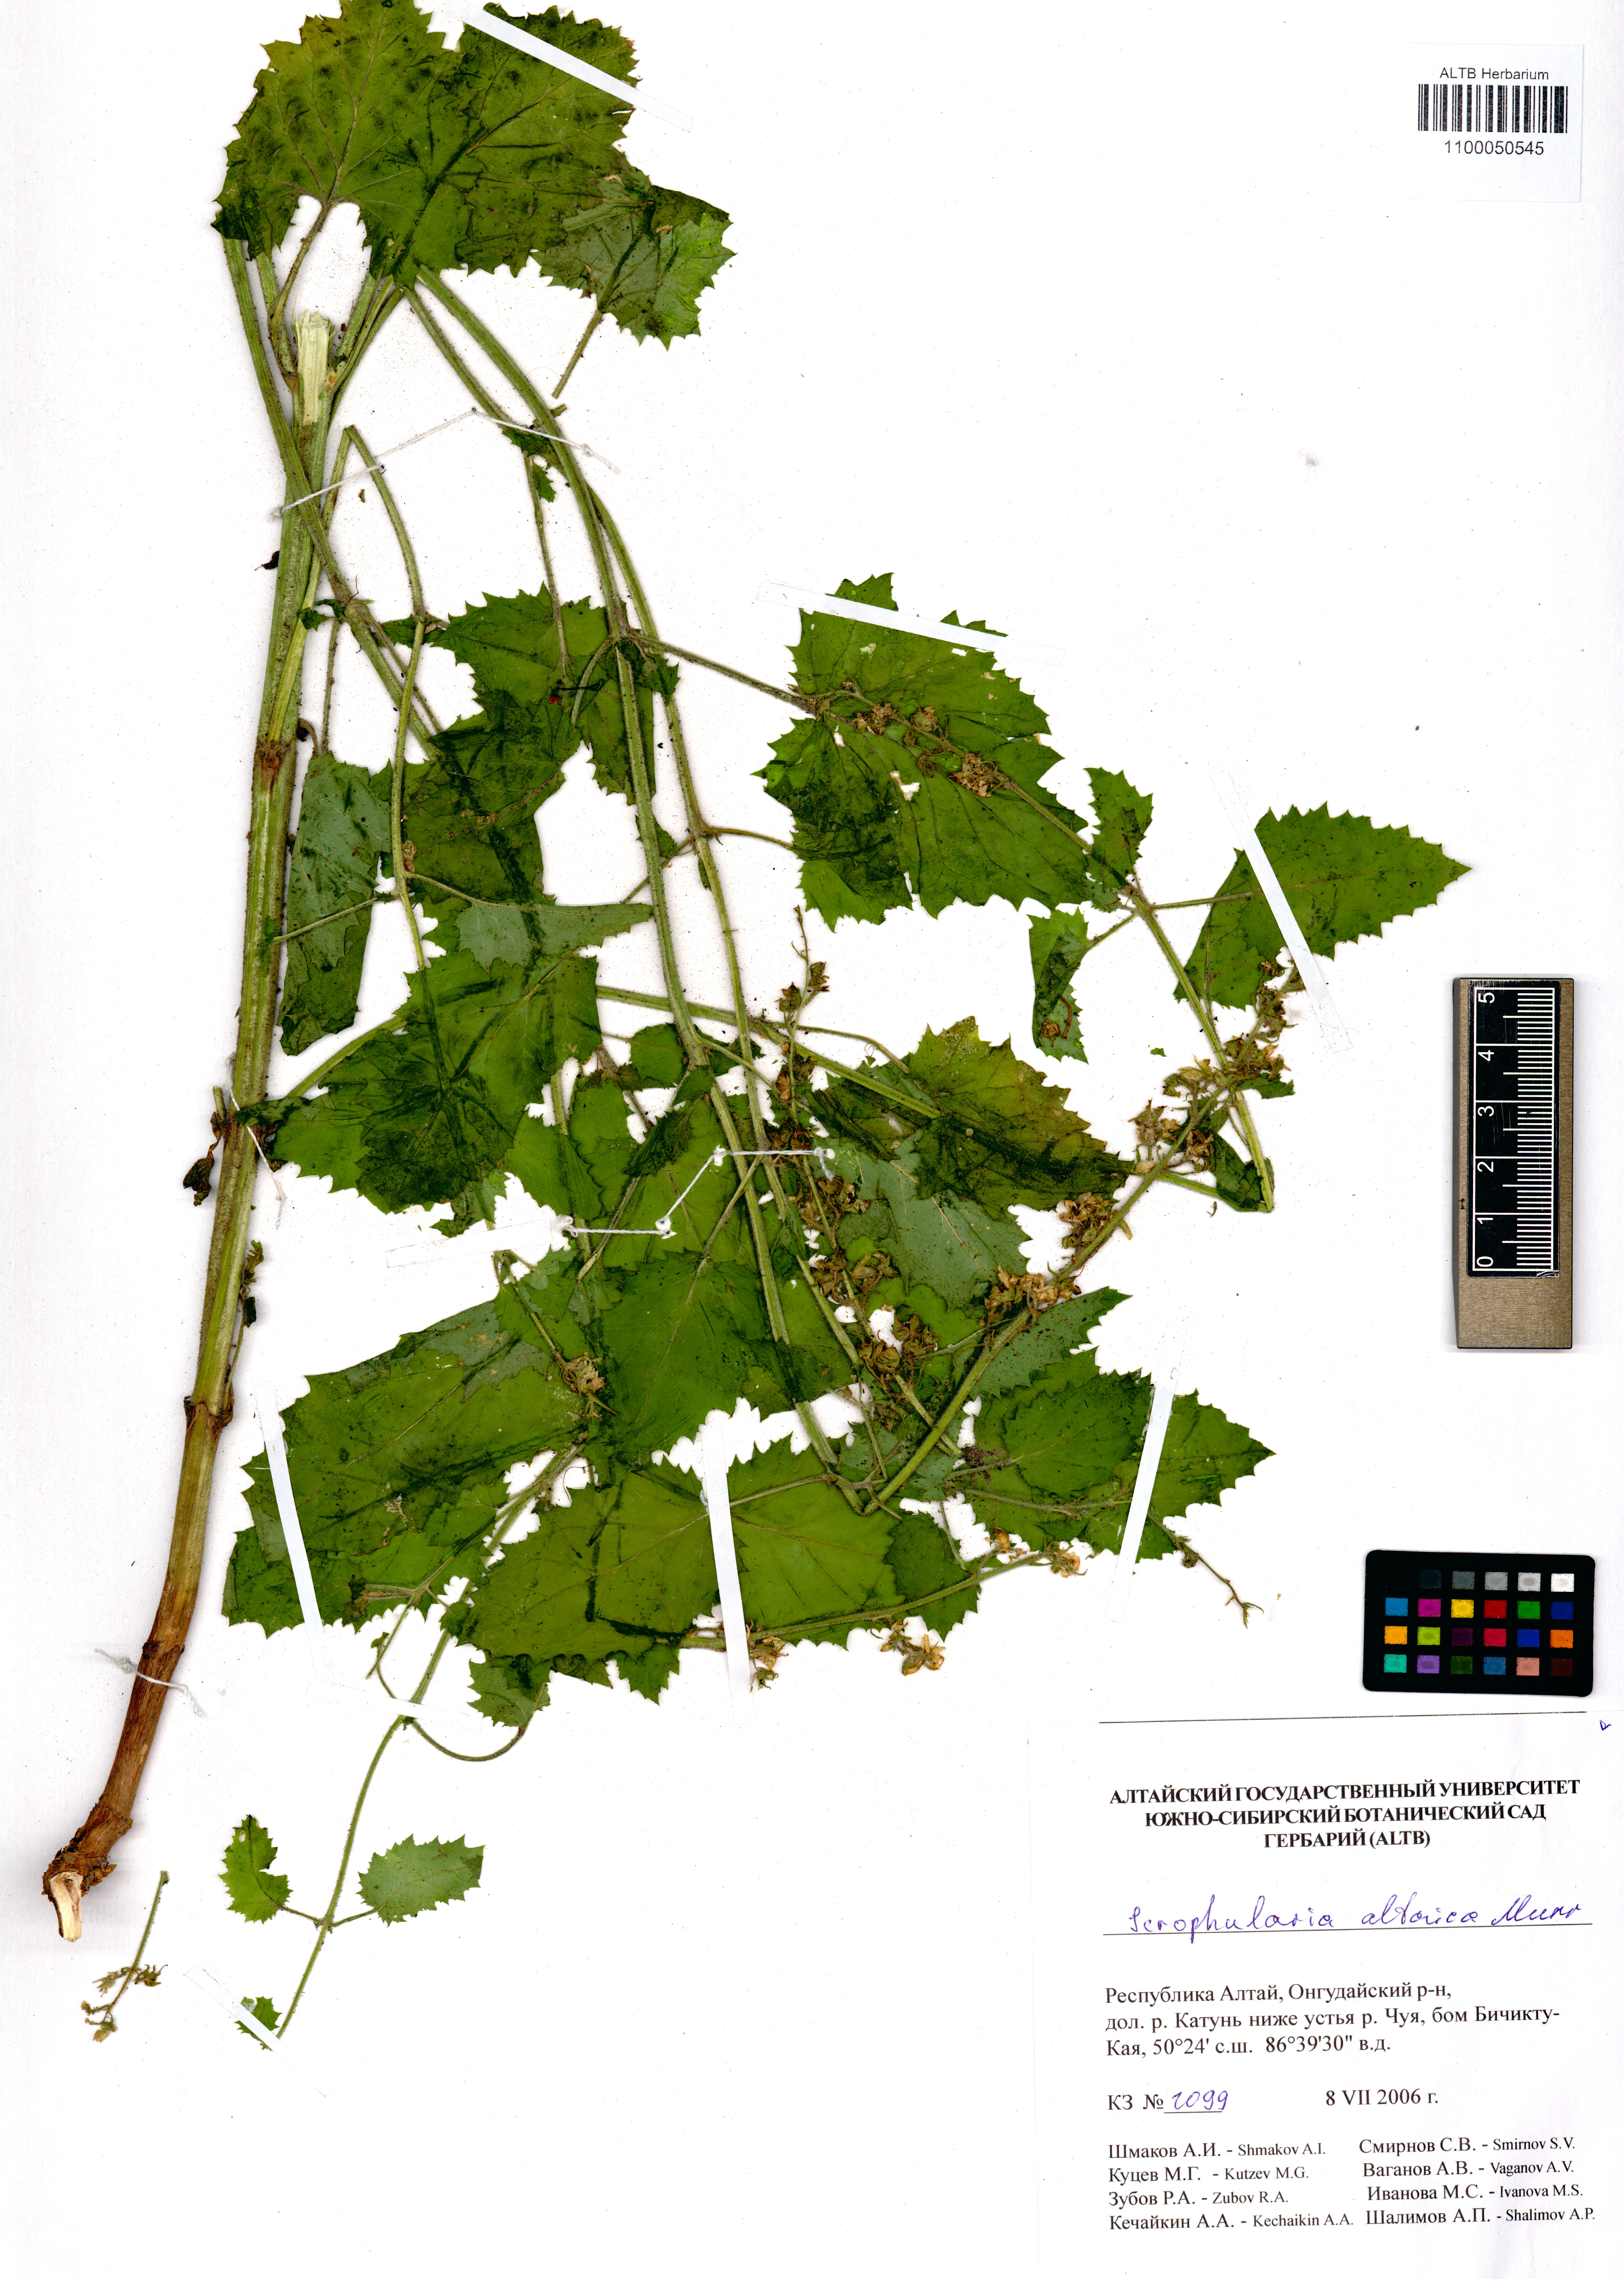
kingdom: Plantae
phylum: Tracheophyta
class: Magnoliopsida
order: Lamiales
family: Scrophulariaceae
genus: Scrophularia
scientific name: Scrophularia altaica
